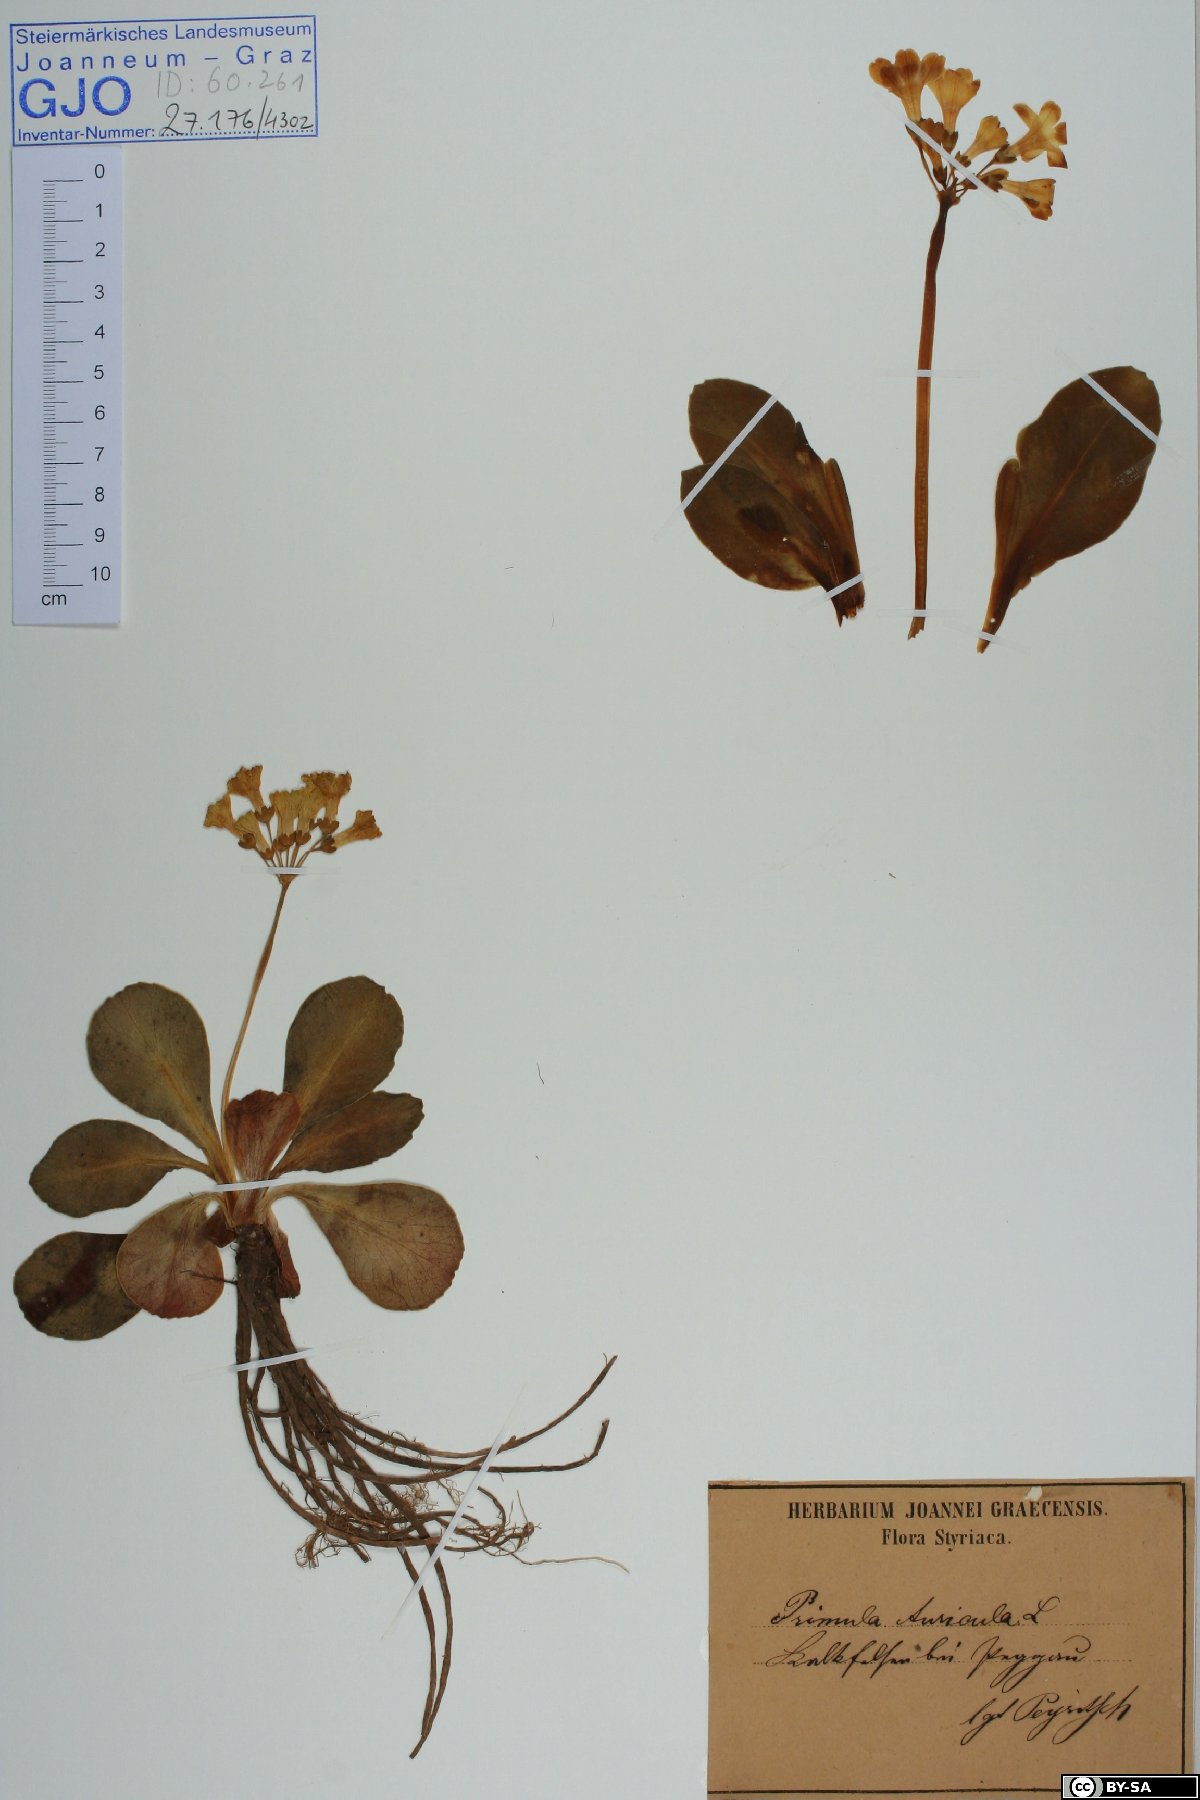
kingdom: Plantae
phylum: Tracheophyta
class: Magnoliopsida
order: Ericales
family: Primulaceae
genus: Primula
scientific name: Primula auricula
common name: Auricula
